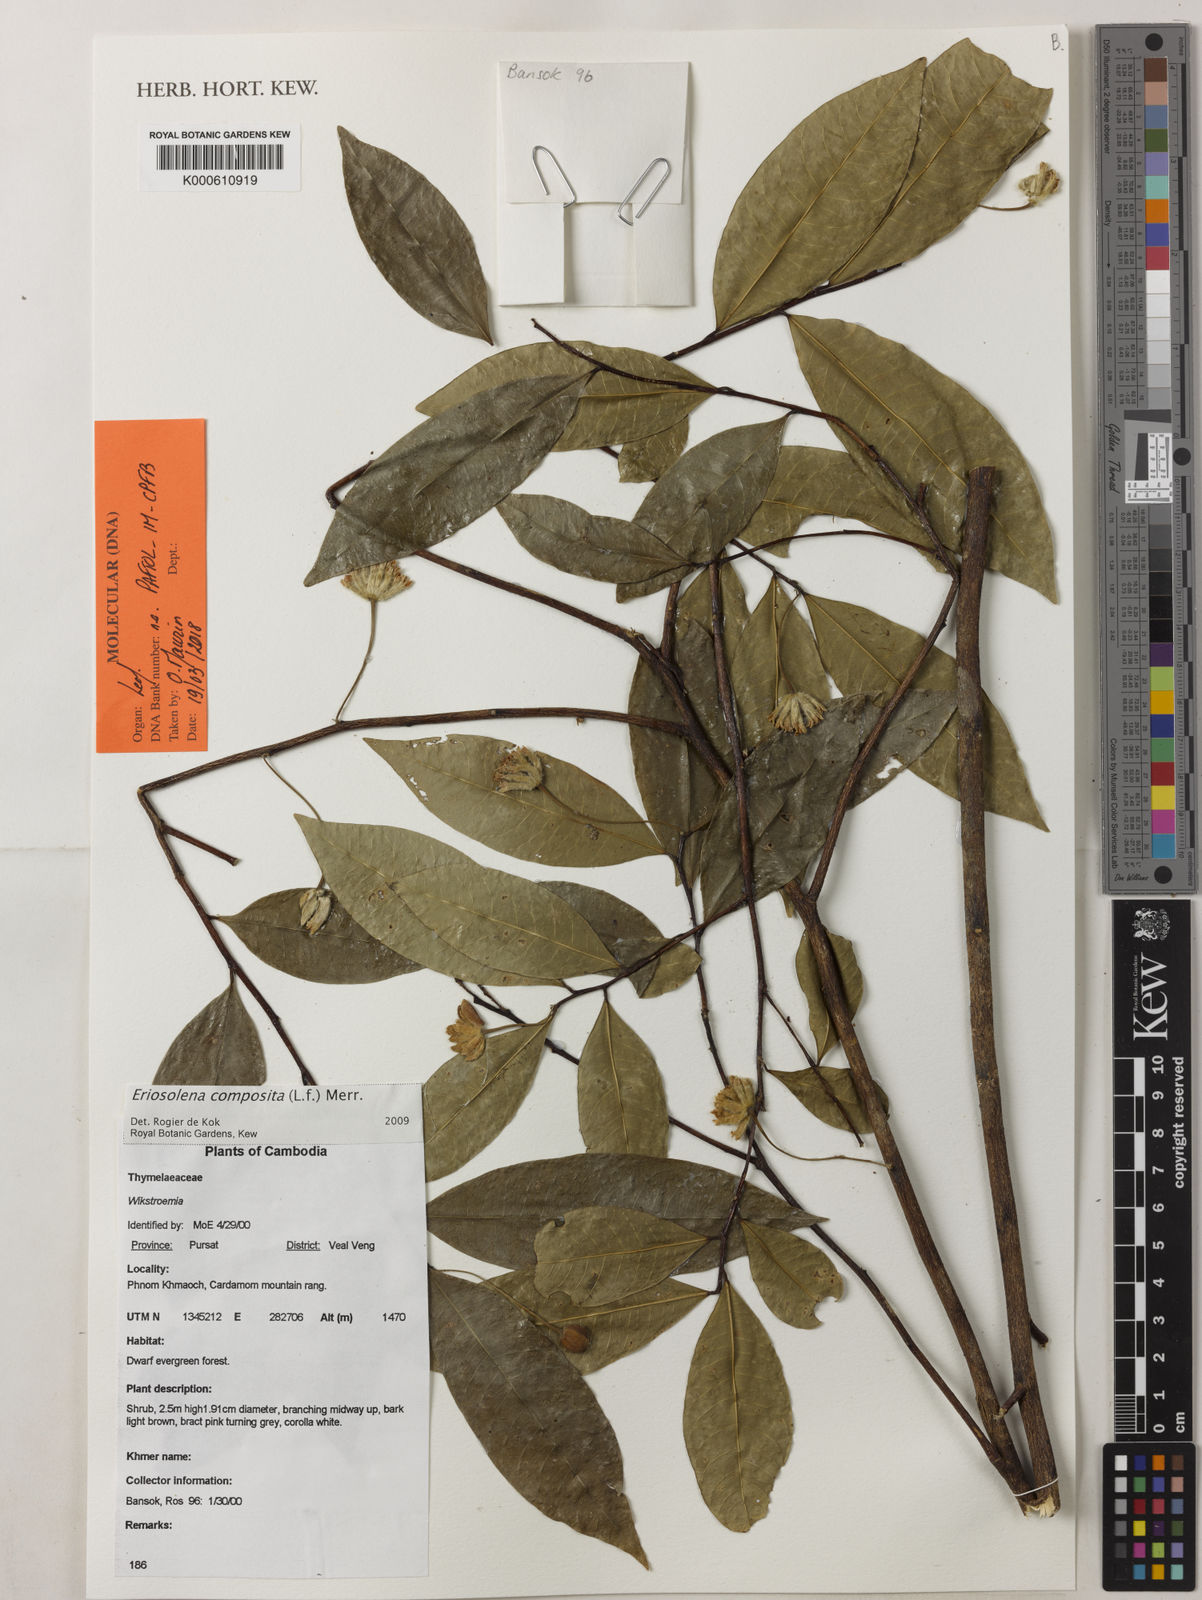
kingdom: Plantae
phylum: Tracheophyta
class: Magnoliopsida
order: Malvales
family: Thymelaeaceae
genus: Eriosolena
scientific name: Eriosolena
